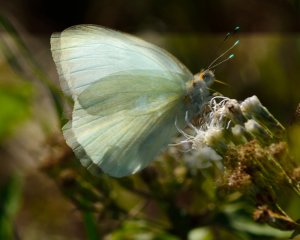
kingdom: Animalia
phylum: Arthropoda
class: Insecta
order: Lepidoptera
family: Pieridae
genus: Ascia
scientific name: Ascia monuste
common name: Great Southern White
